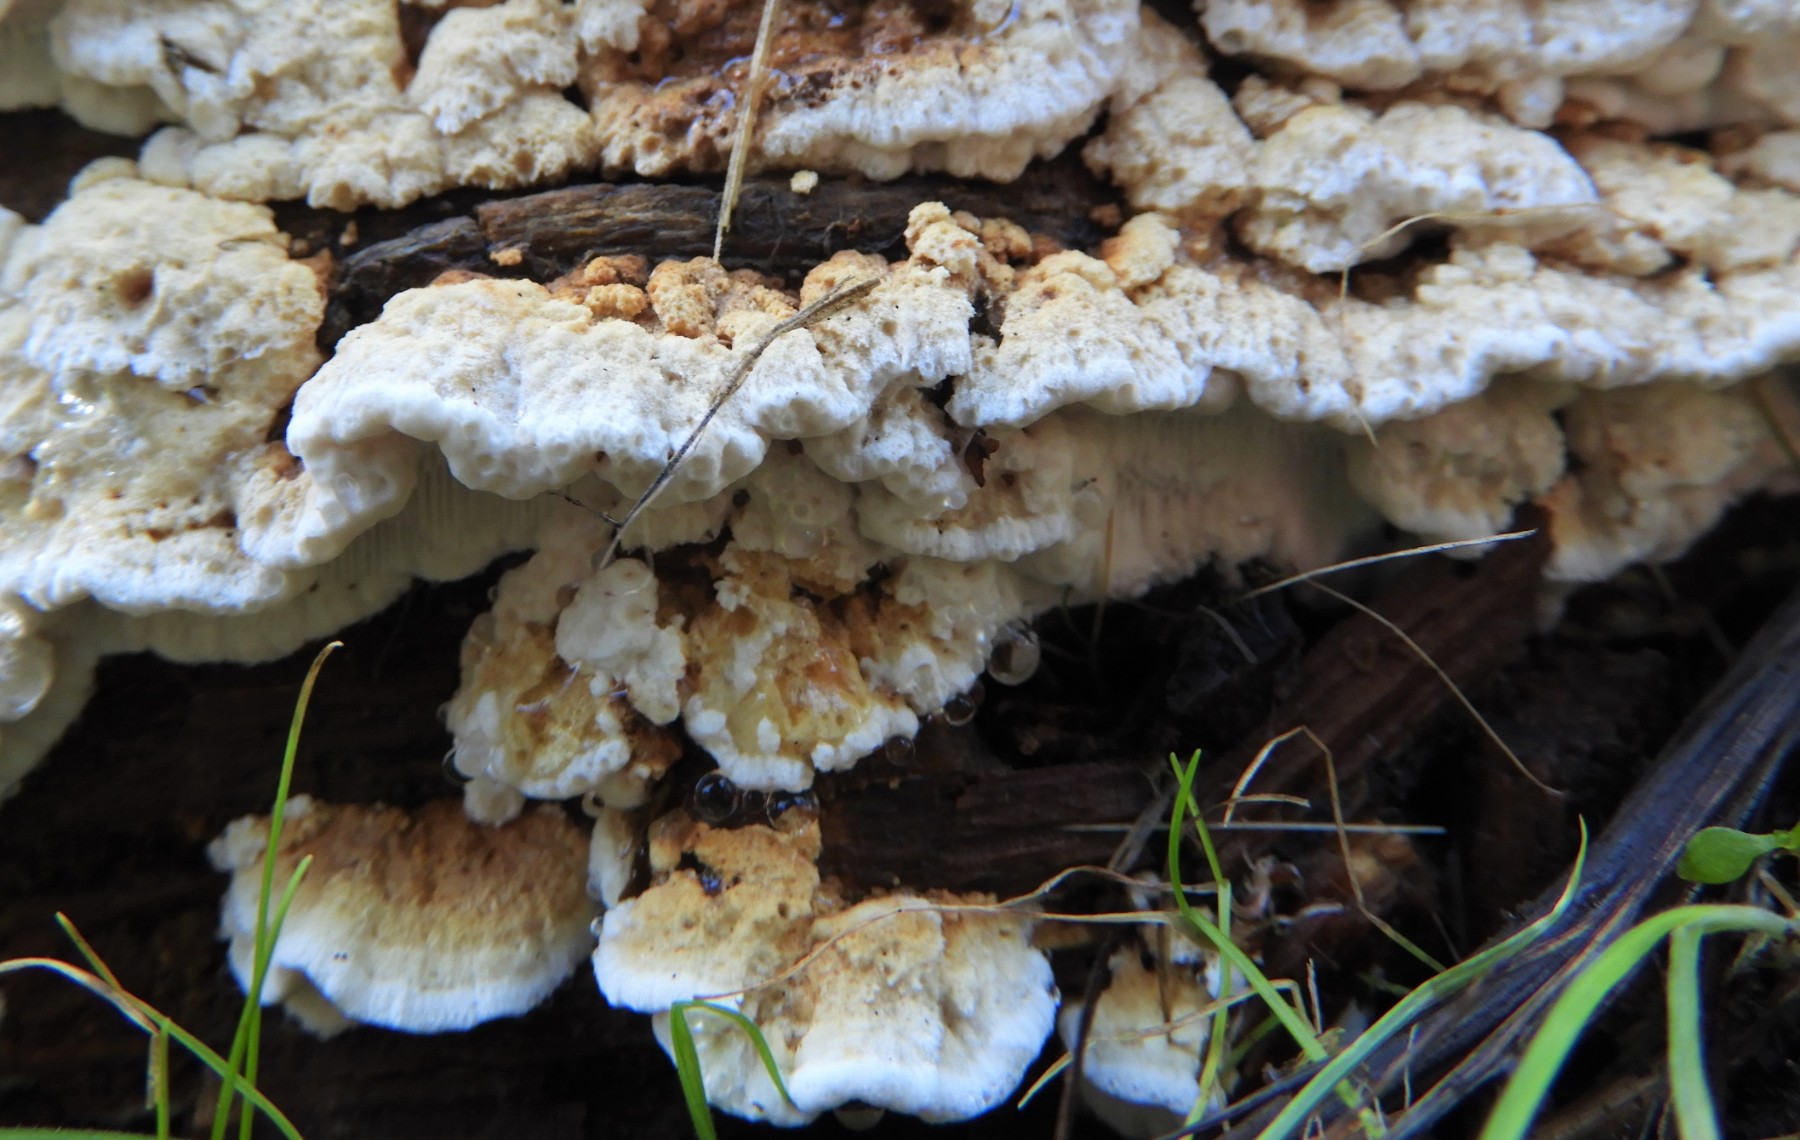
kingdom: Fungi
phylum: Basidiomycota
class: Agaricomycetes
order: Polyporales
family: Fomitopsidaceae
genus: Neoantrodia
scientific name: Neoantrodia serialis
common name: række-sejporesvamp
